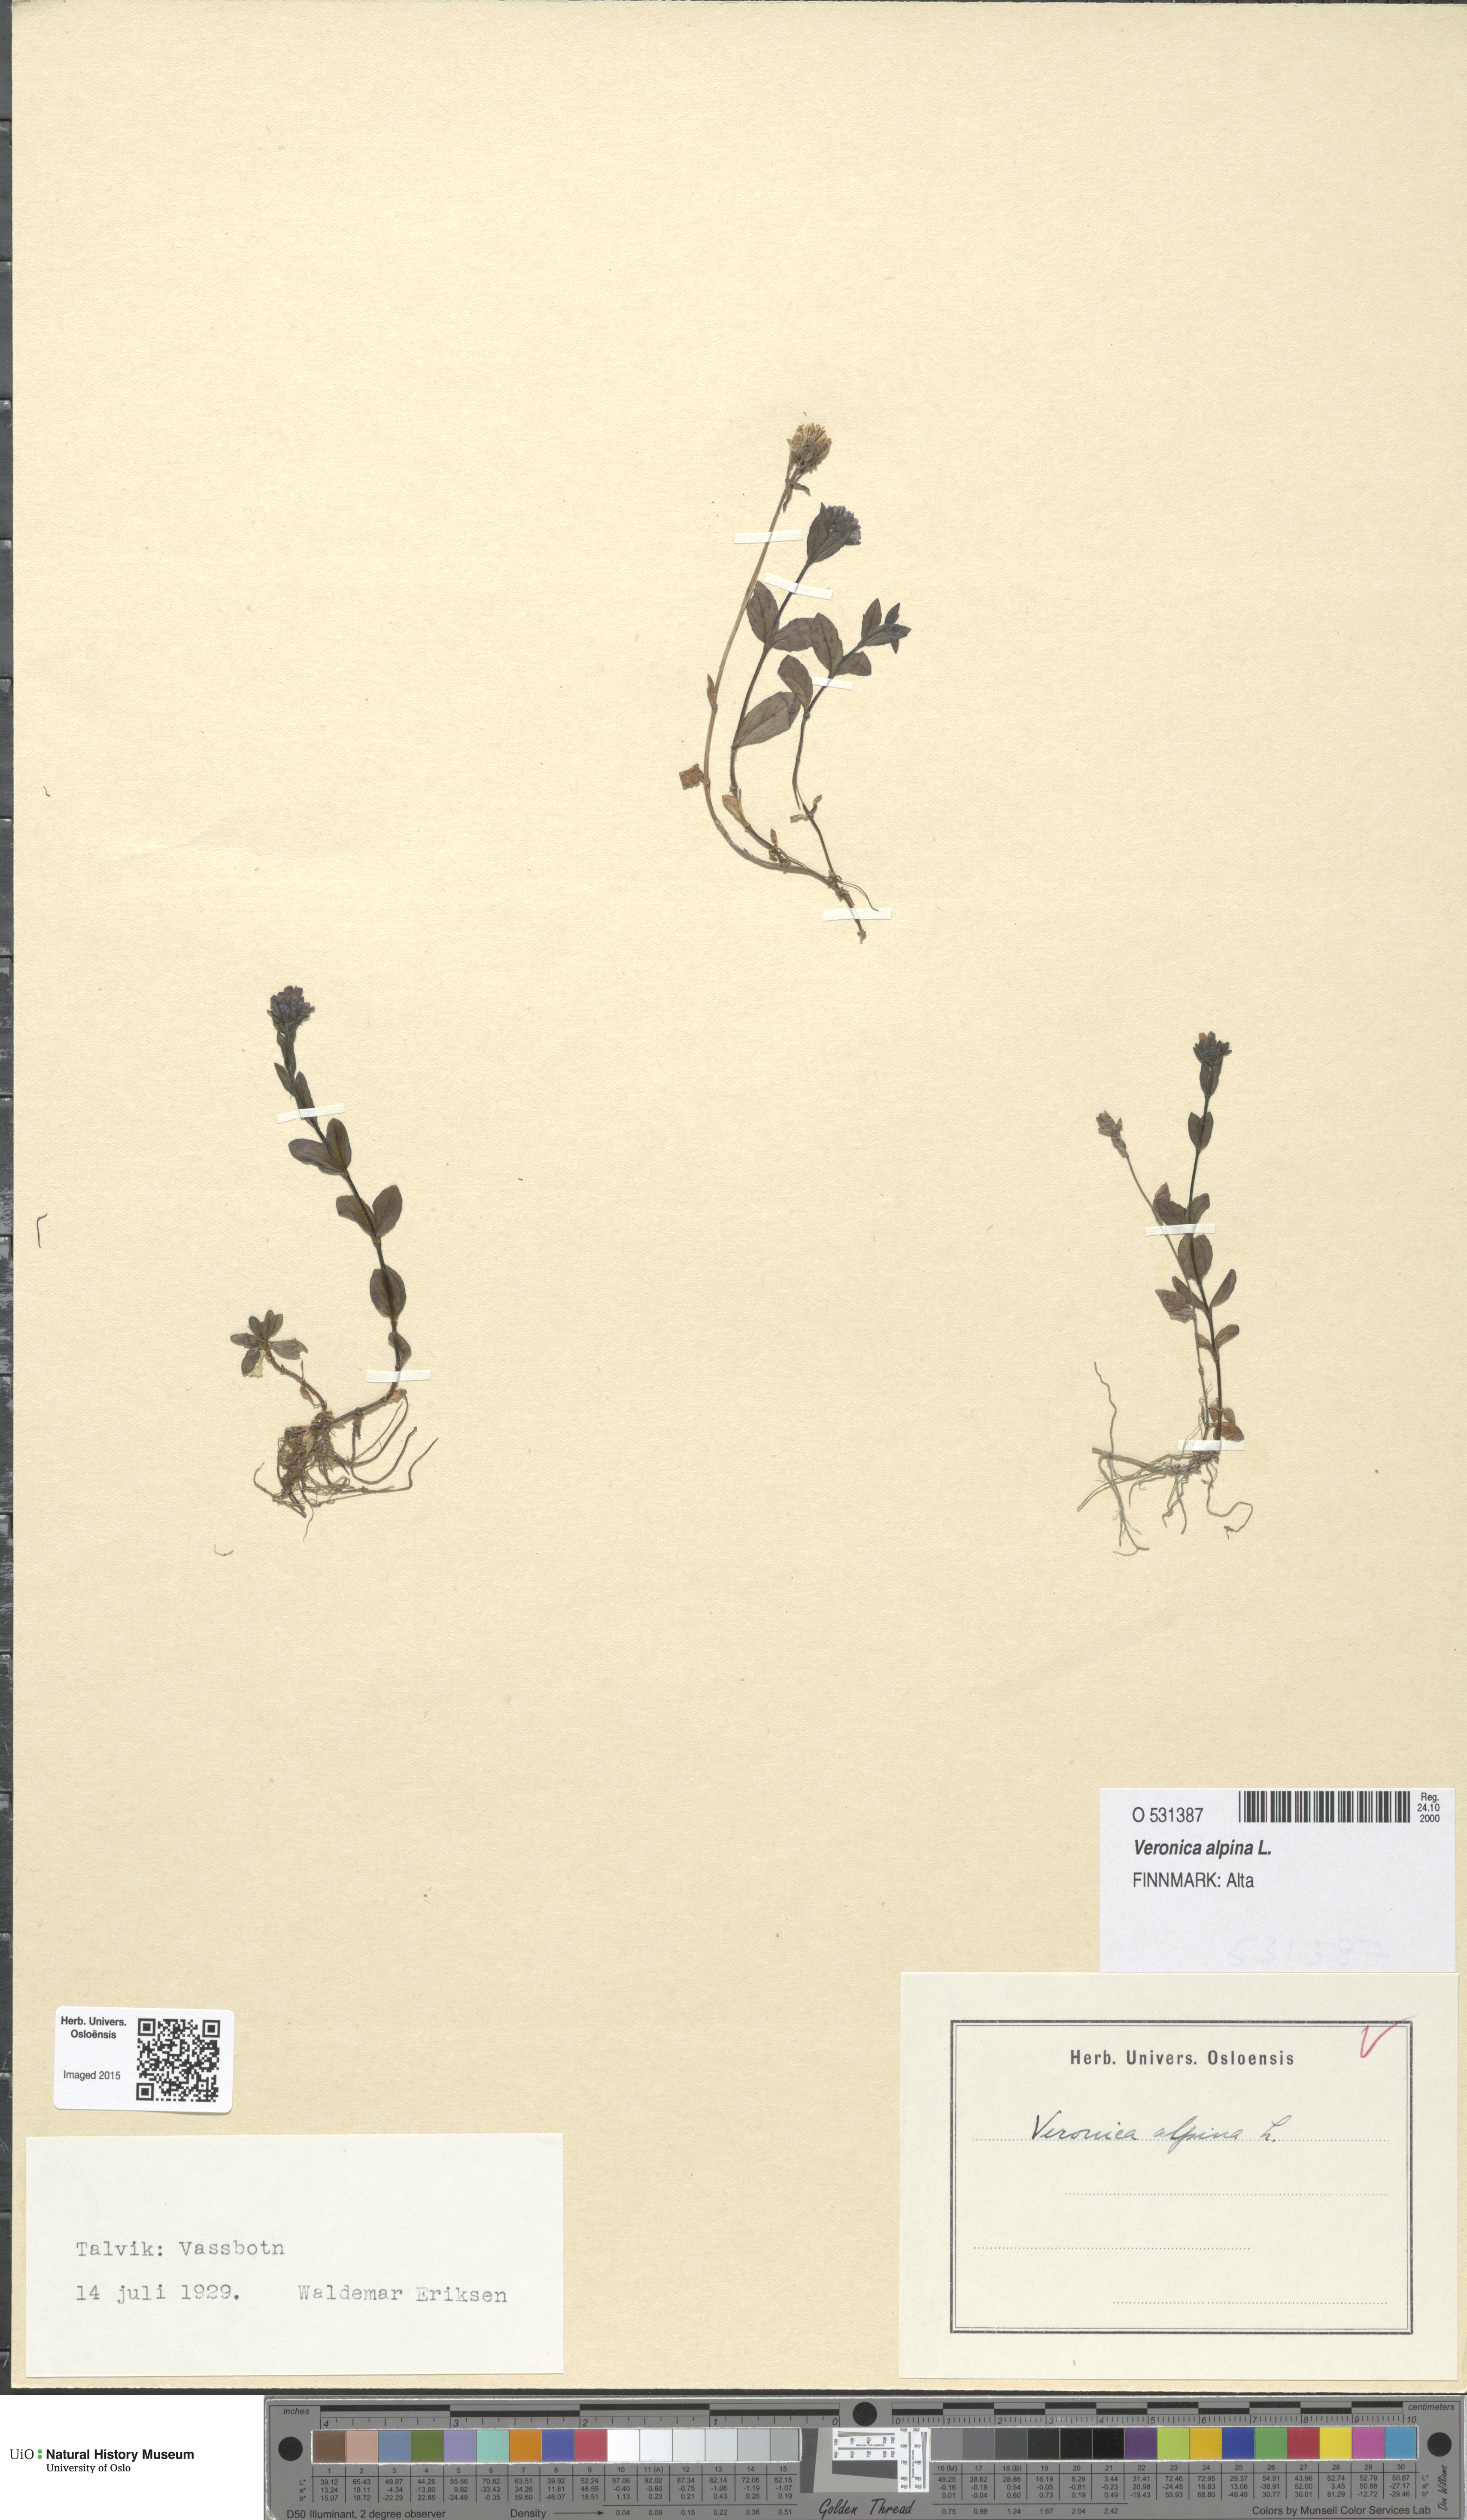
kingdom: Plantae
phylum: Tracheophyta
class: Magnoliopsida
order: Lamiales
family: Plantaginaceae
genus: Veronica
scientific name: Veronica alpina
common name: Alpine speedwell
